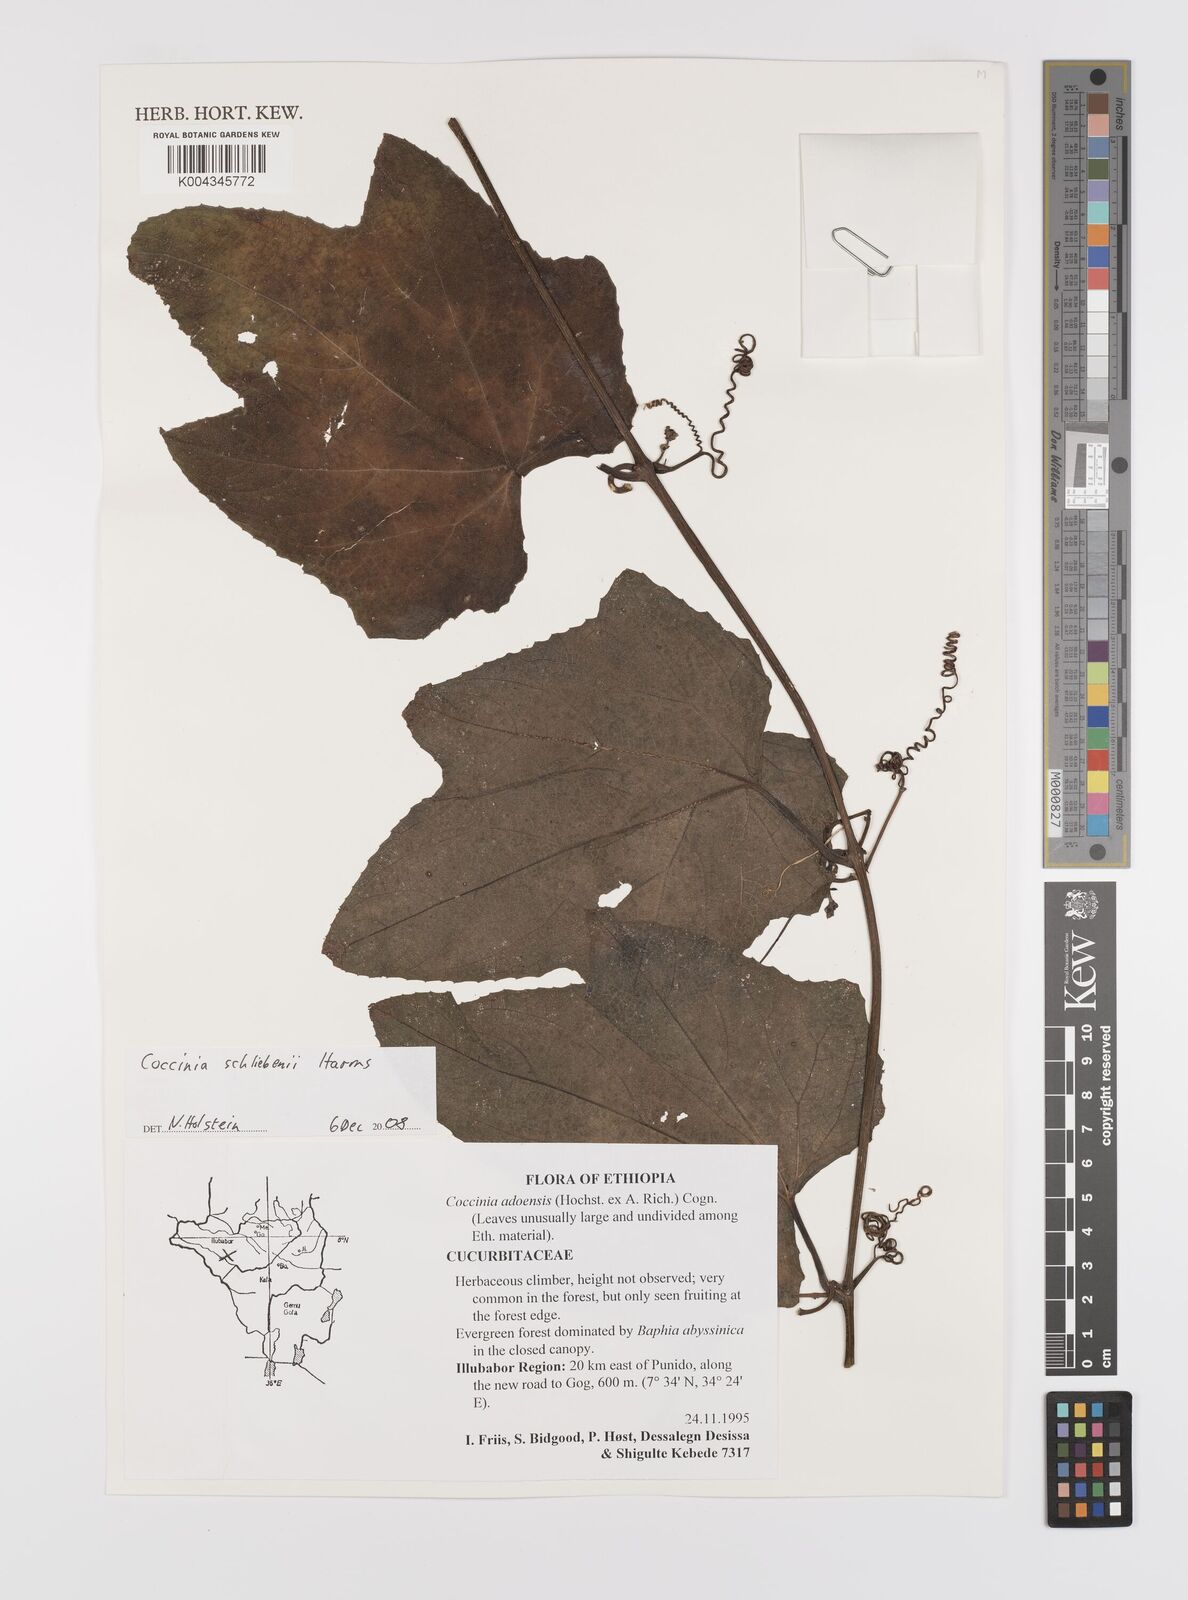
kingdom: Plantae
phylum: Tracheophyta
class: Magnoliopsida
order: Cucurbitales
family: Cucurbitaceae
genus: Coccinia
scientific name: Coccinia schliebenii
